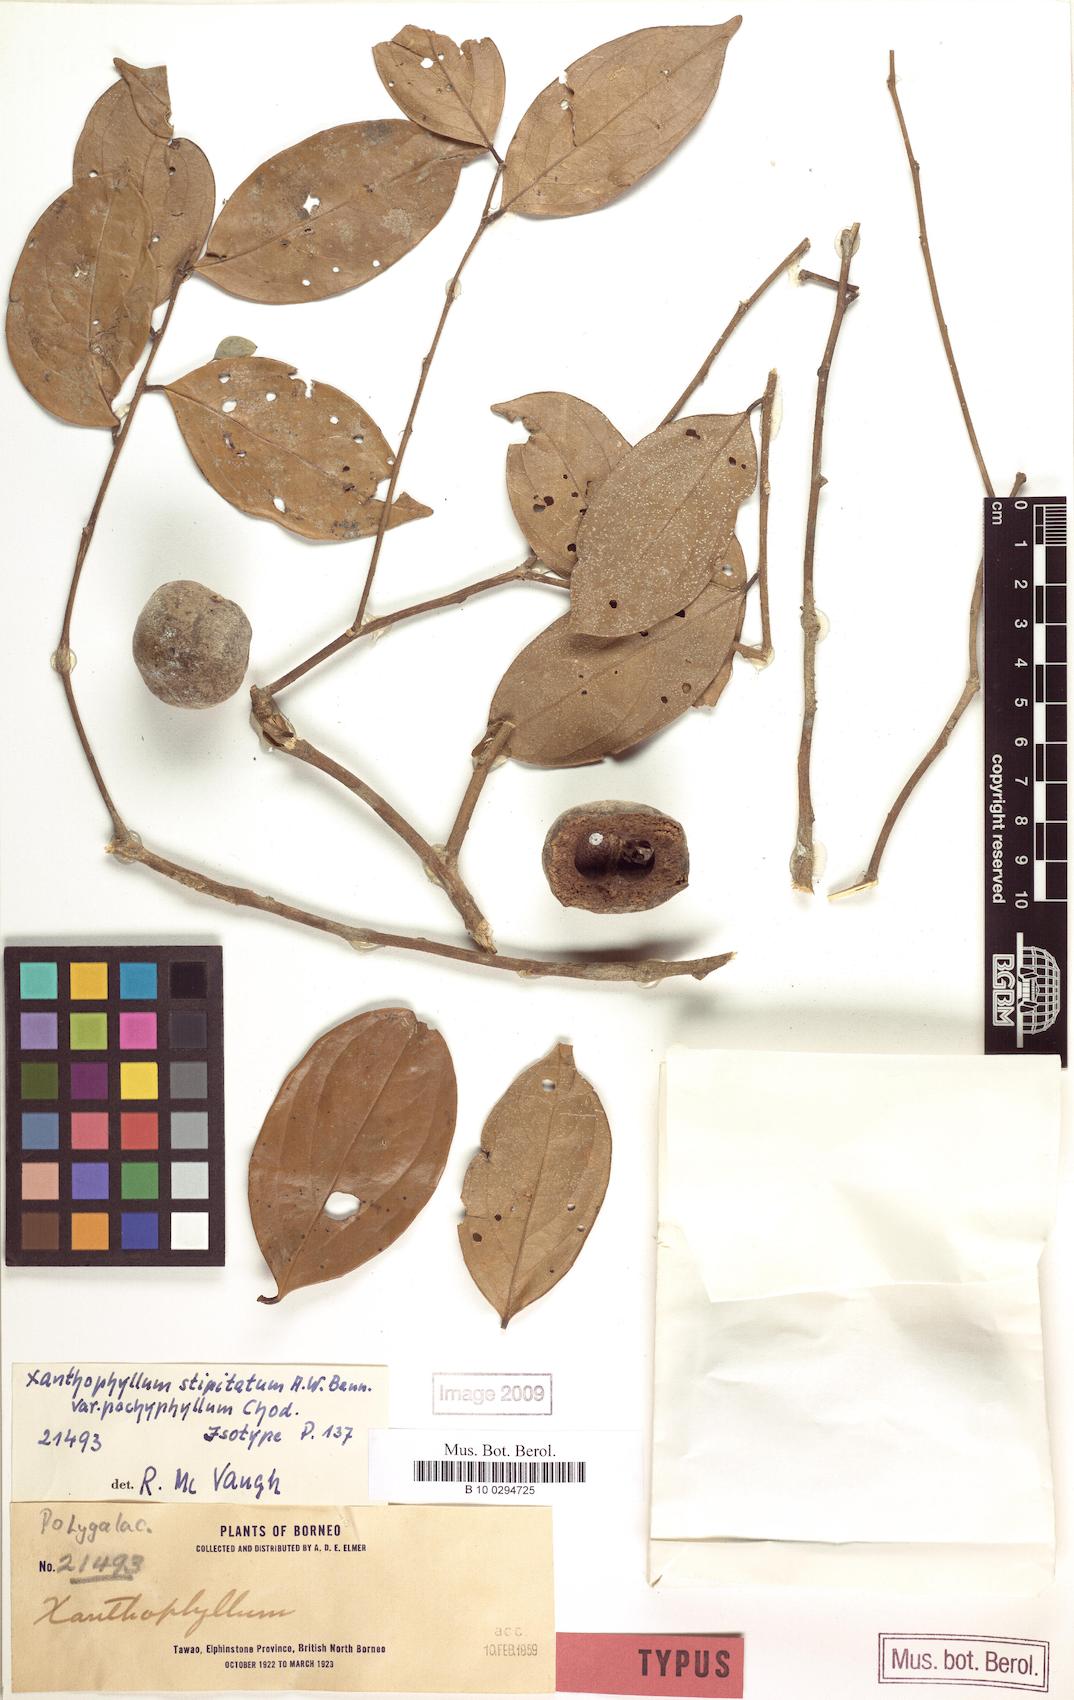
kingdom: Plantae
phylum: Tracheophyta
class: Magnoliopsida
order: Fabales
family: Polygalaceae
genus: Xanthophyllum
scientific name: Xanthophyllum stipitatum
